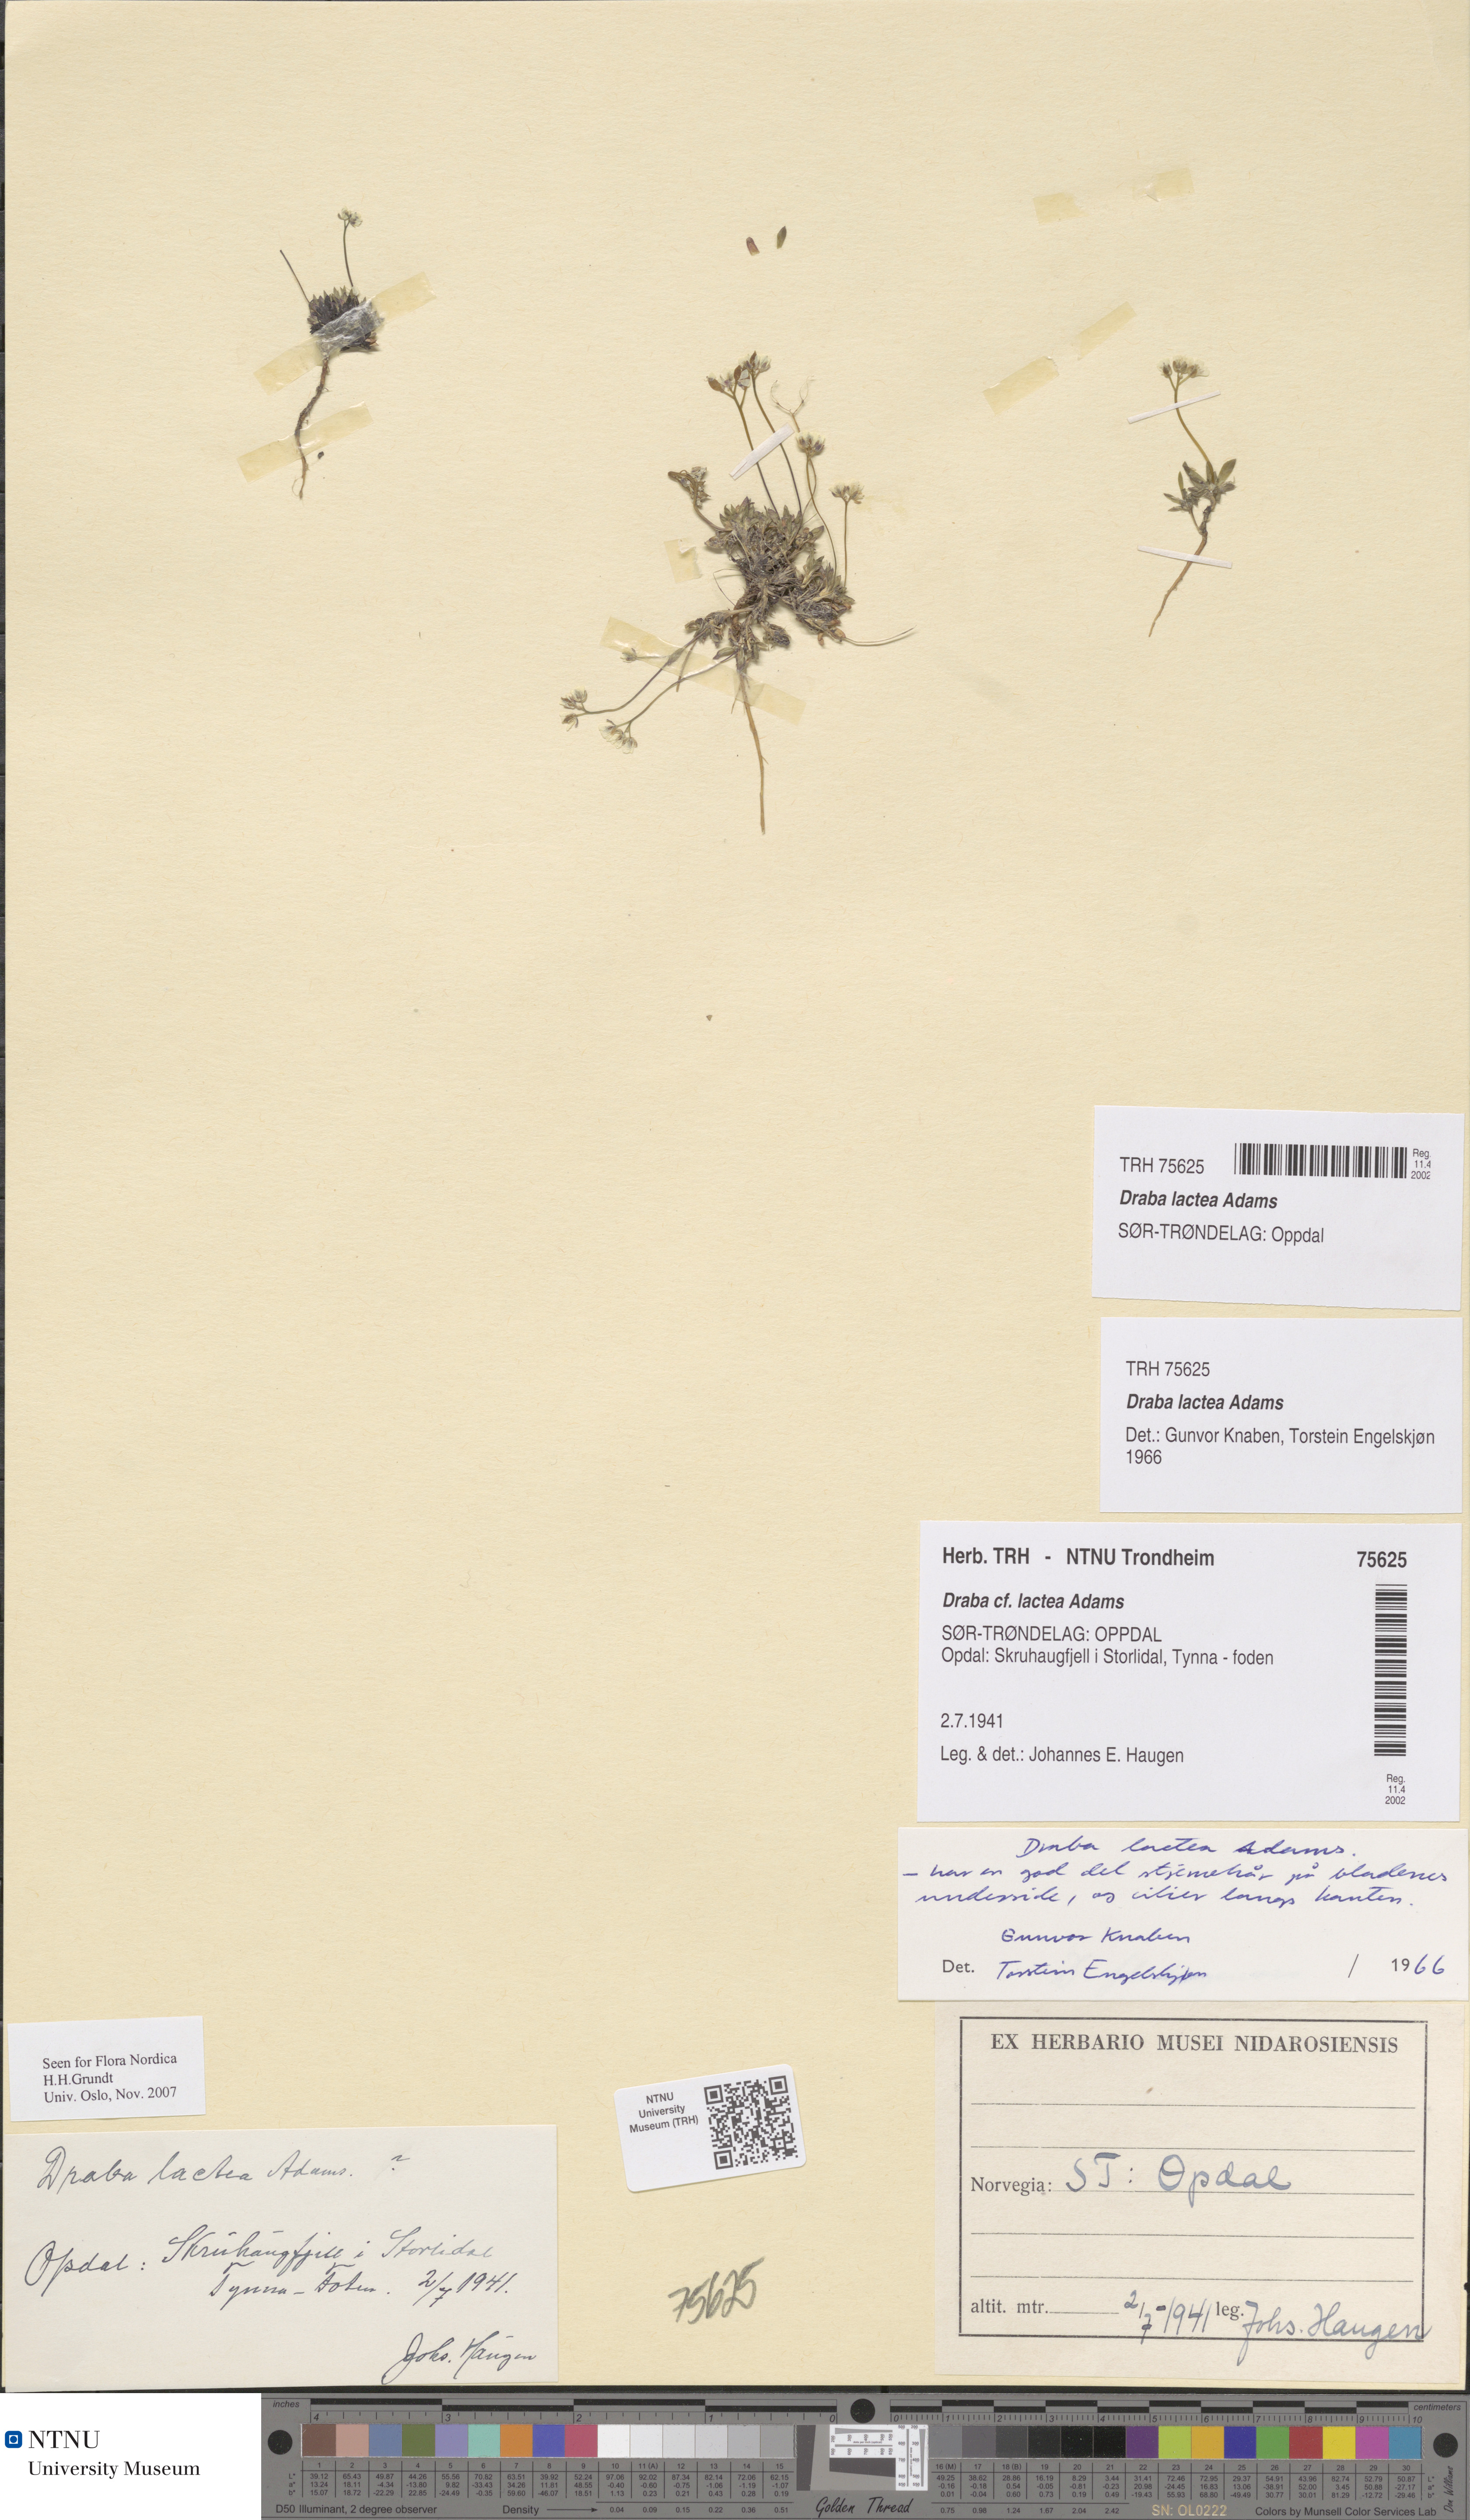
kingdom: Plantae
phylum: Tracheophyta
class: Magnoliopsida
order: Brassicales
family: Brassicaceae
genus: Draba
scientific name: Draba lactea
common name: Milky draba
